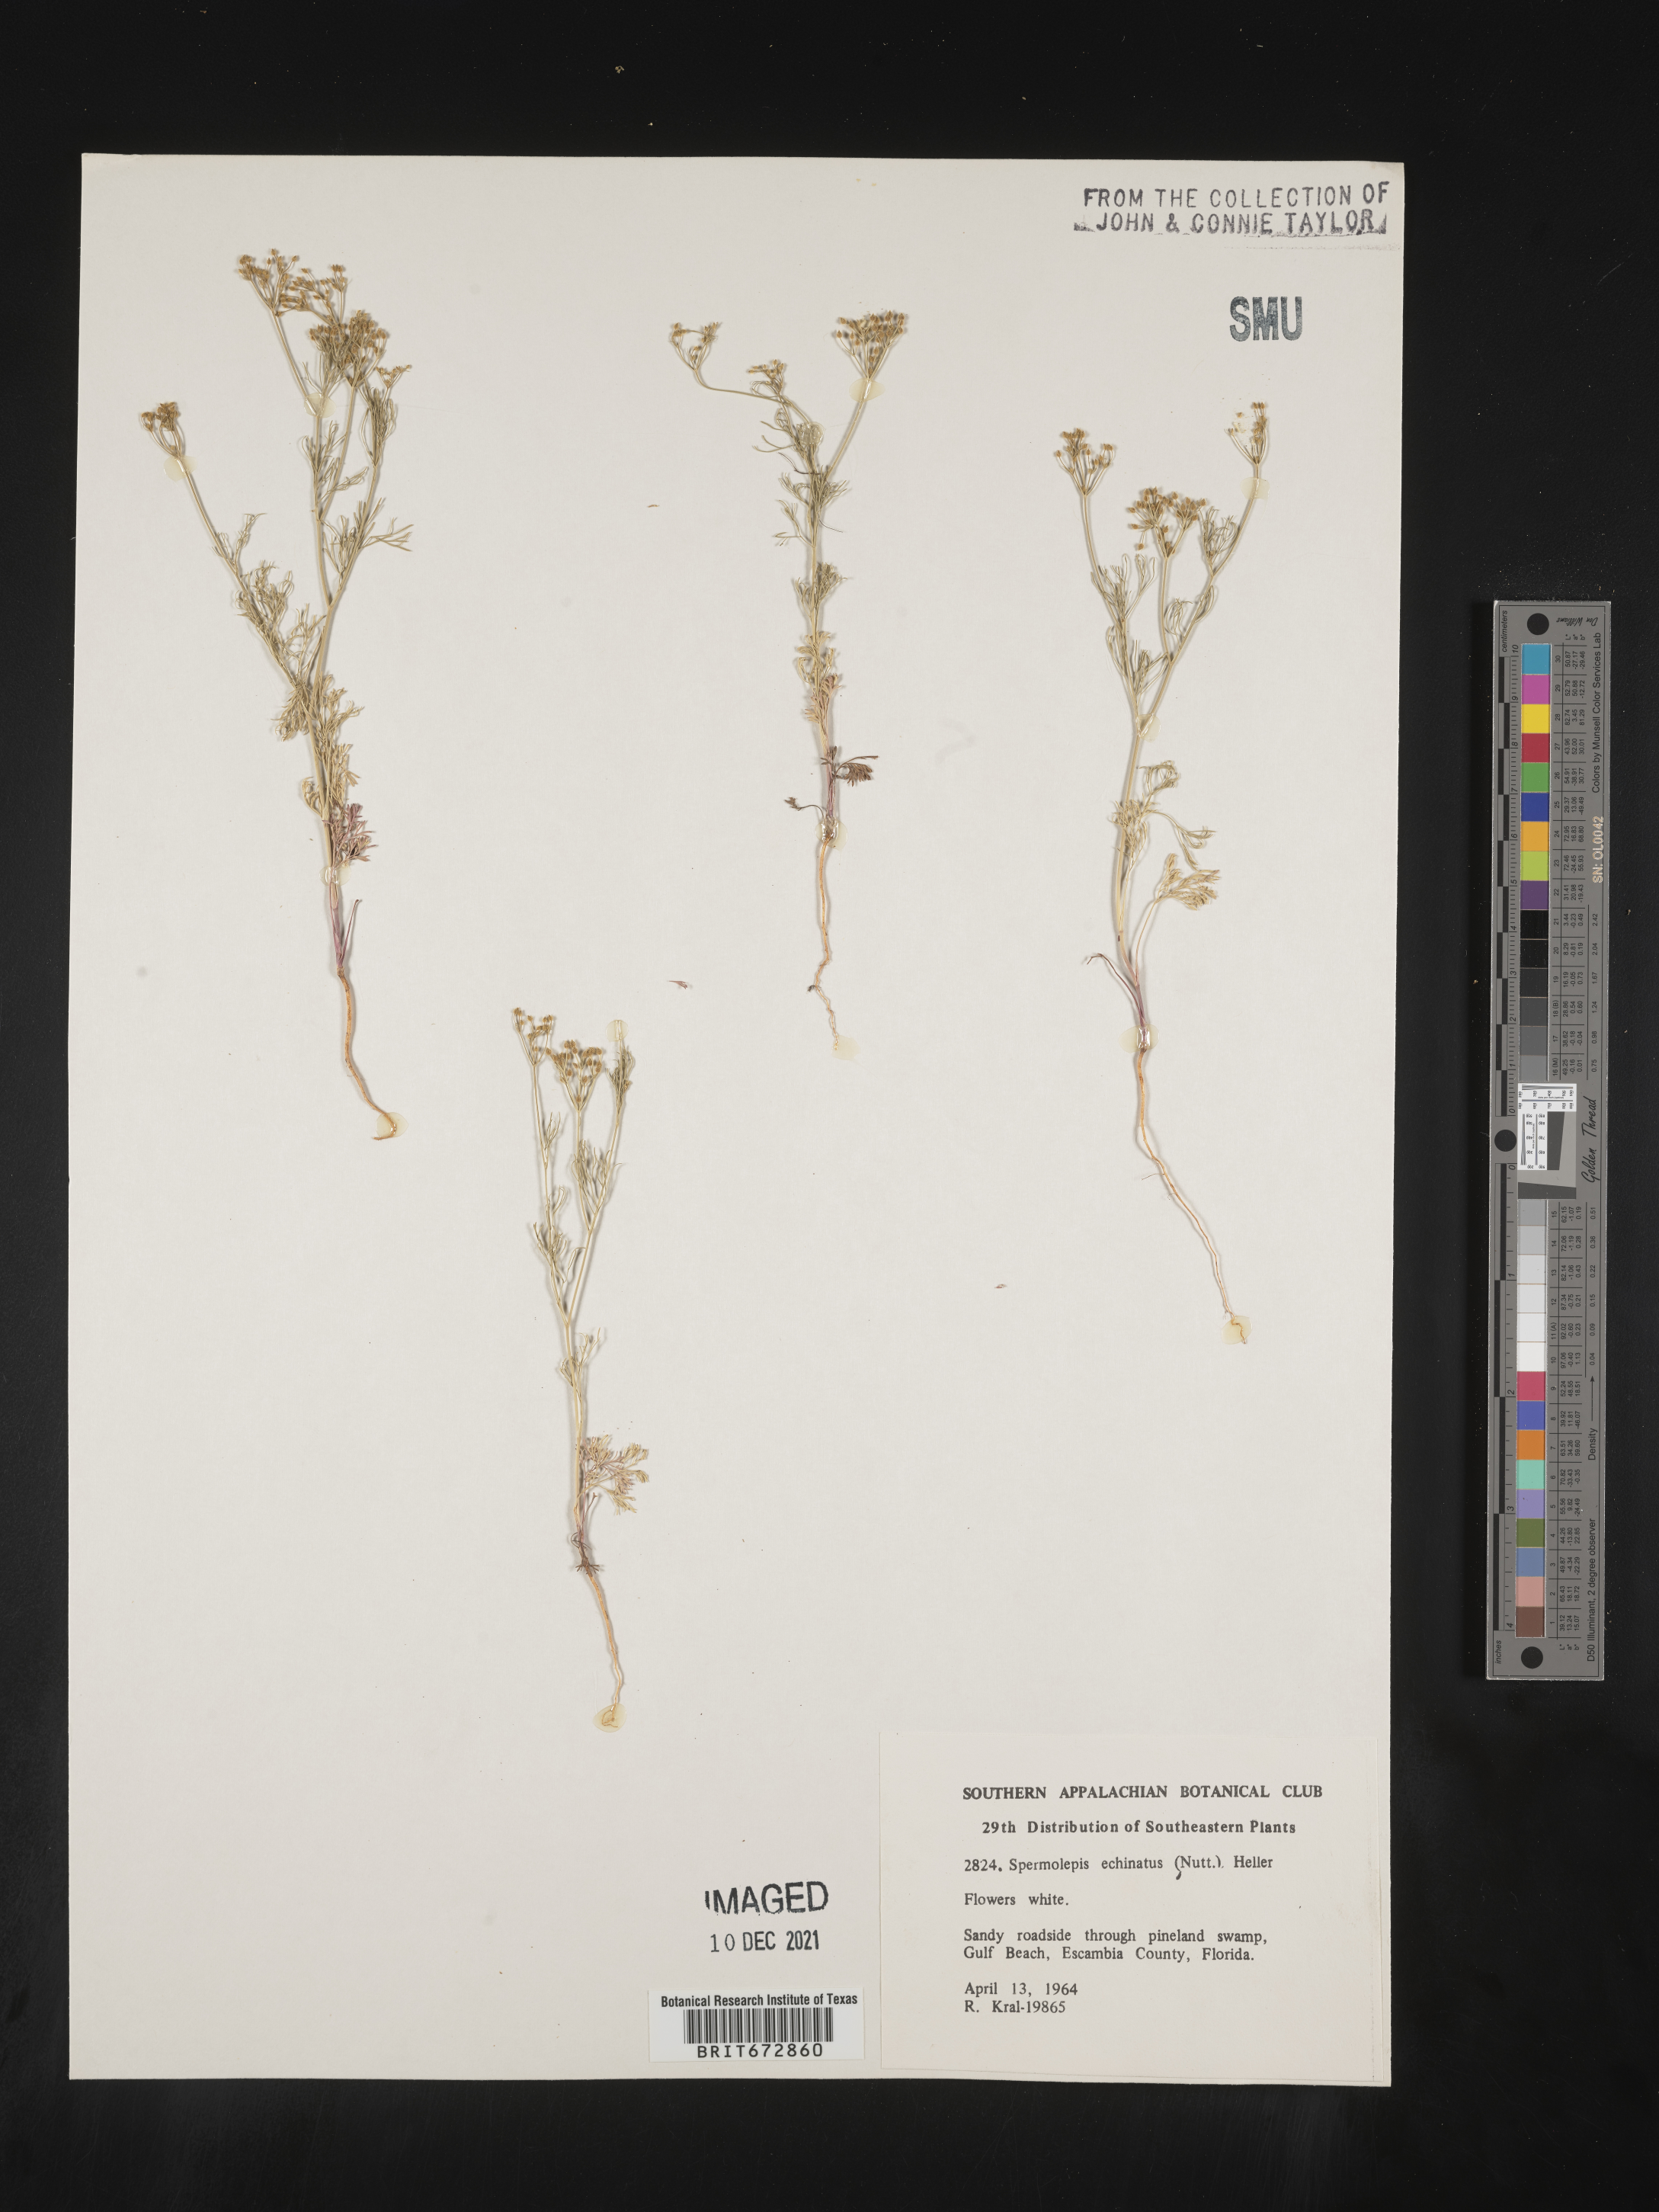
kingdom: Plantae
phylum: Tracheophyta
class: Magnoliopsida
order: Apiales
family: Apiaceae
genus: Spermolepis
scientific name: Spermolepis echinata
